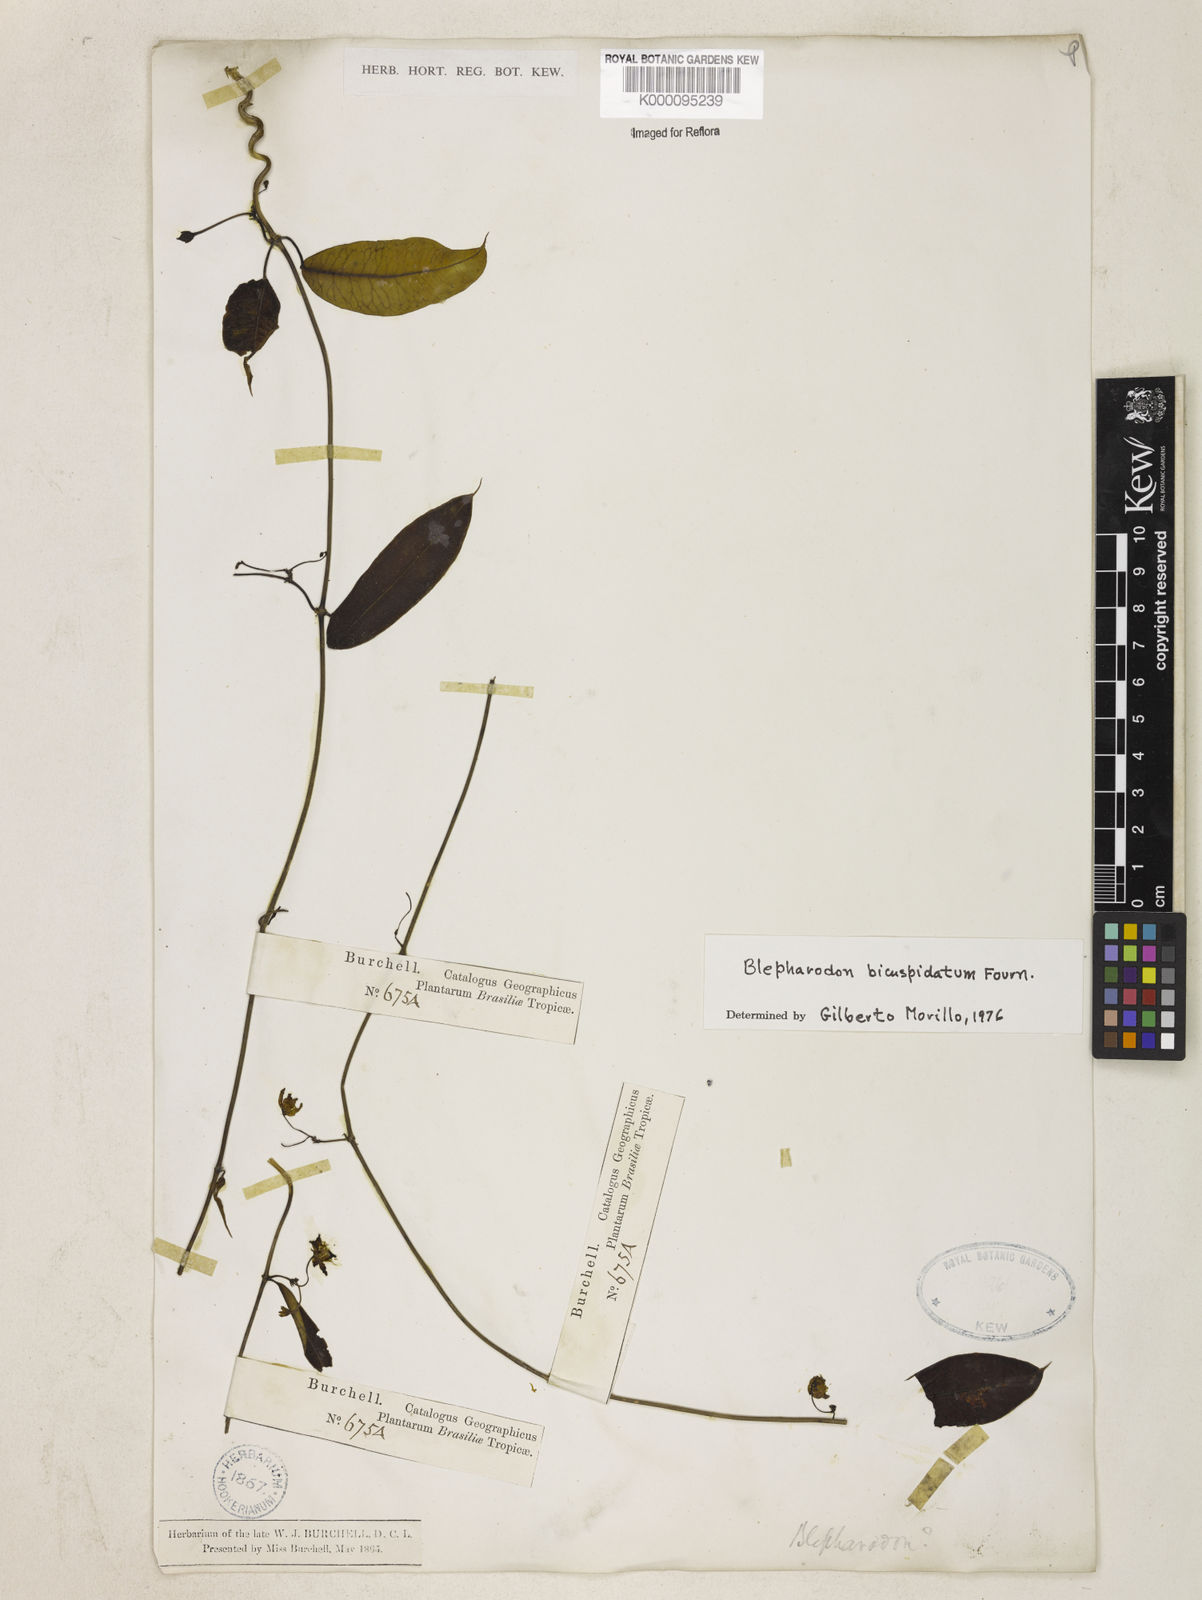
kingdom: Plantae
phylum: Tracheophyta
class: Magnoliopsida
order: Gentianales
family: Apocynaceae
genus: Blepharodon
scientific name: Blepharodon bicuspidatum
